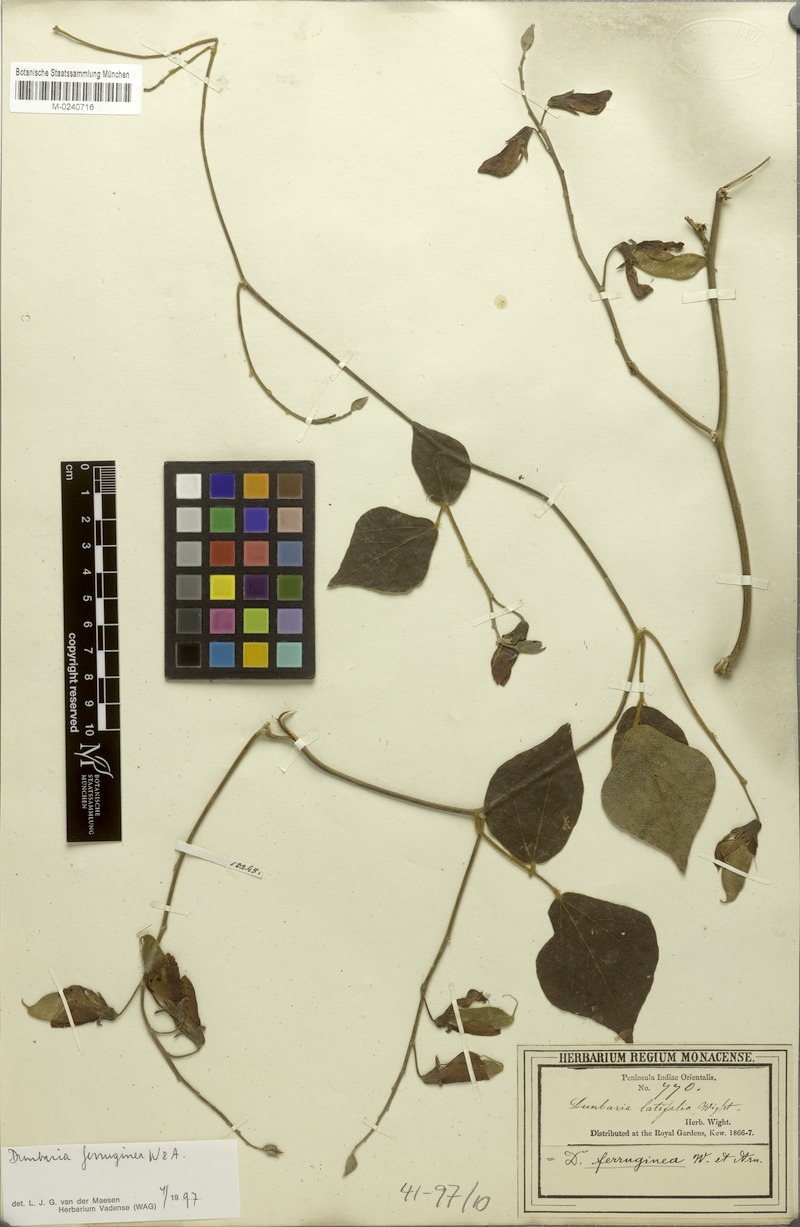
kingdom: Plantae
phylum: Tracheophyta
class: Magnoliopsida
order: Fabales
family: Fabaceae
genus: Dunbaria
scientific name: Dunbaria ferruginea
